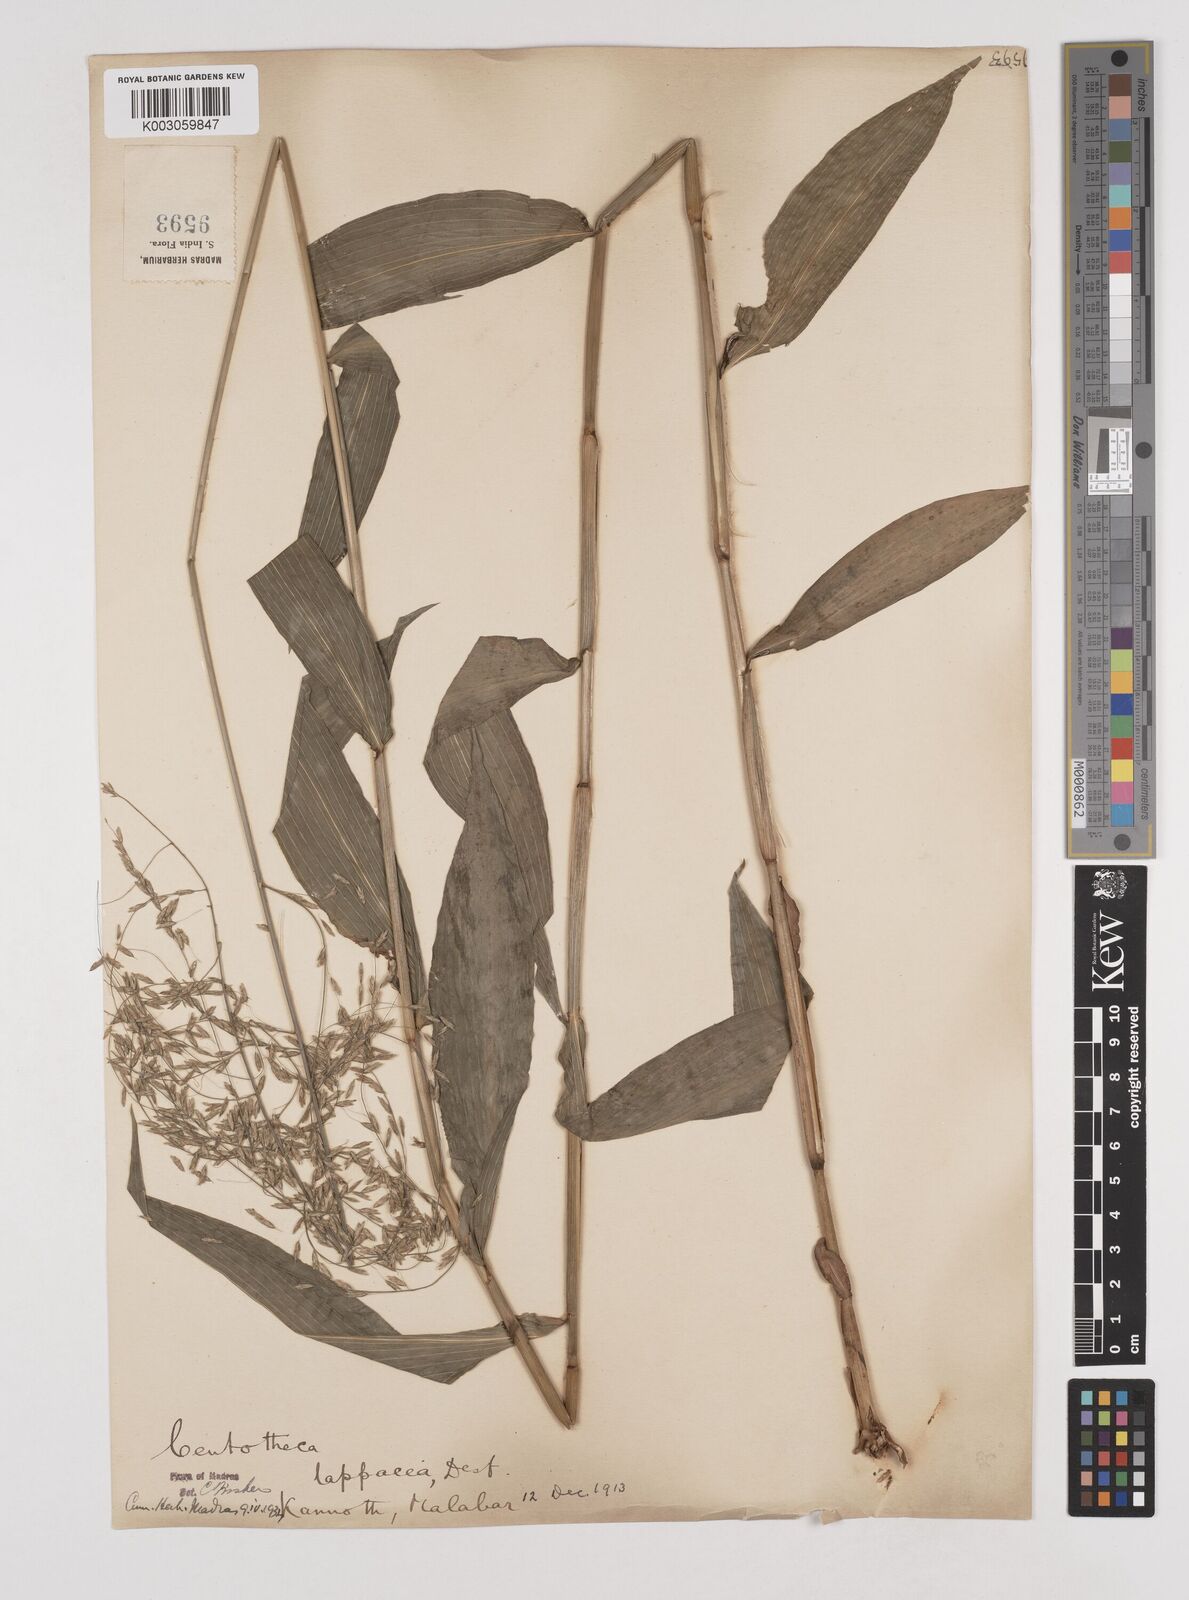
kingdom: Plantae
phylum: Tracheophyta
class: Liliopsida
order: Poales
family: Poaceae
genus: Centotheca
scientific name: Centotheca lappacea
